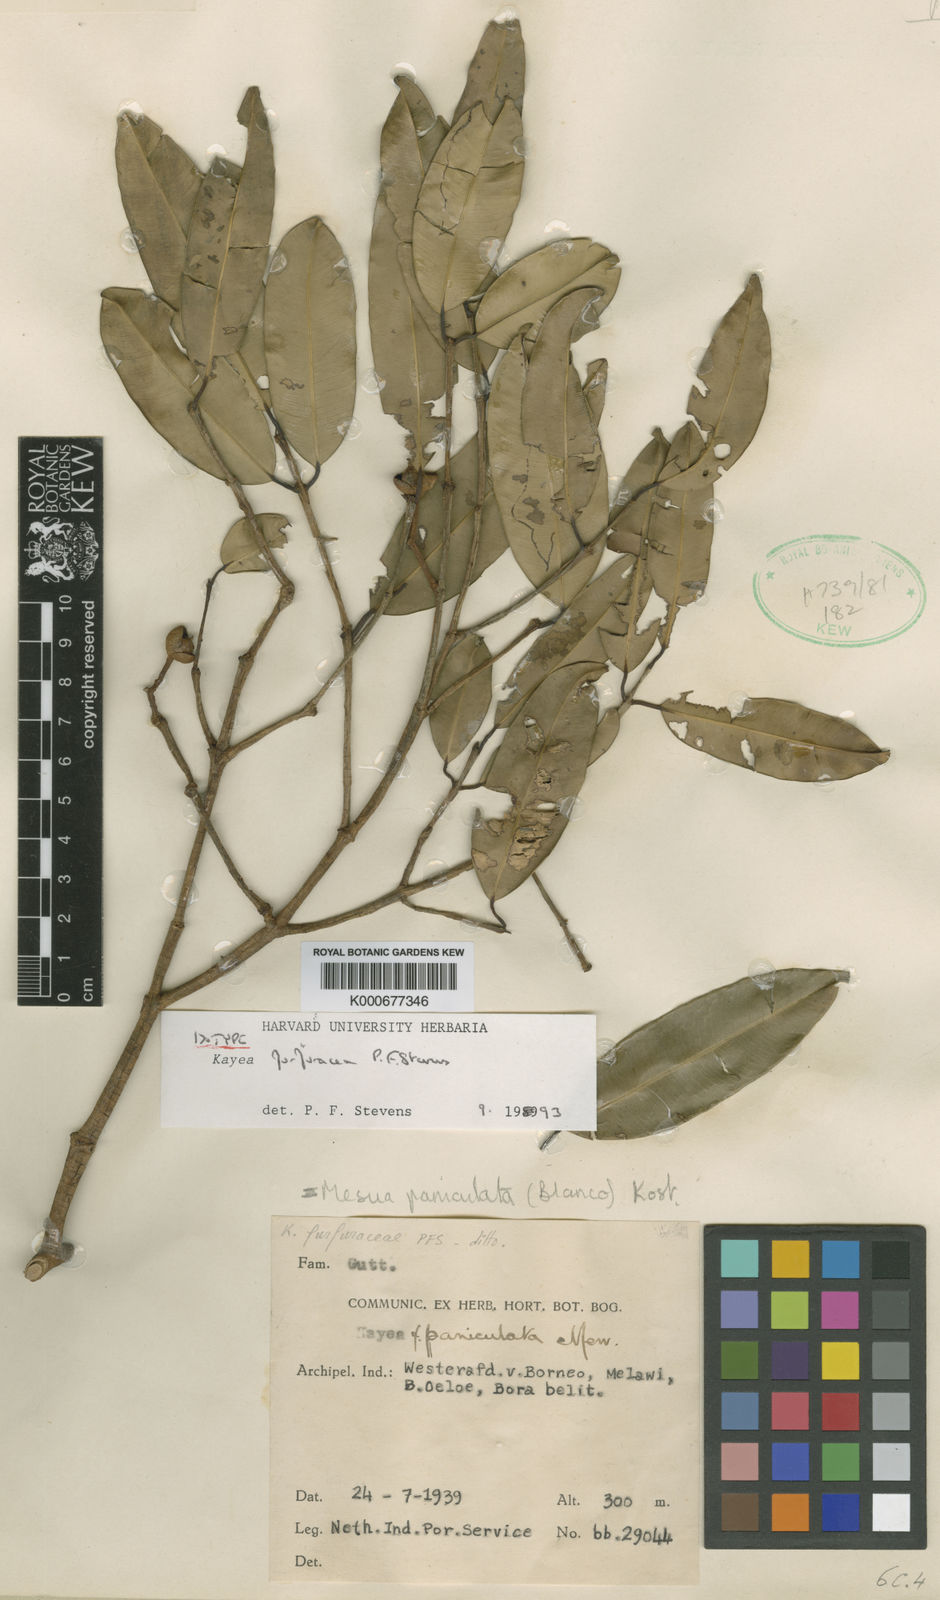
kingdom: Plantae
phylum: Tracheophyta
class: Magnoliopsida
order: Malpighiales
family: Calophyllaceae
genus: Kayea
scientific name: Kayea
